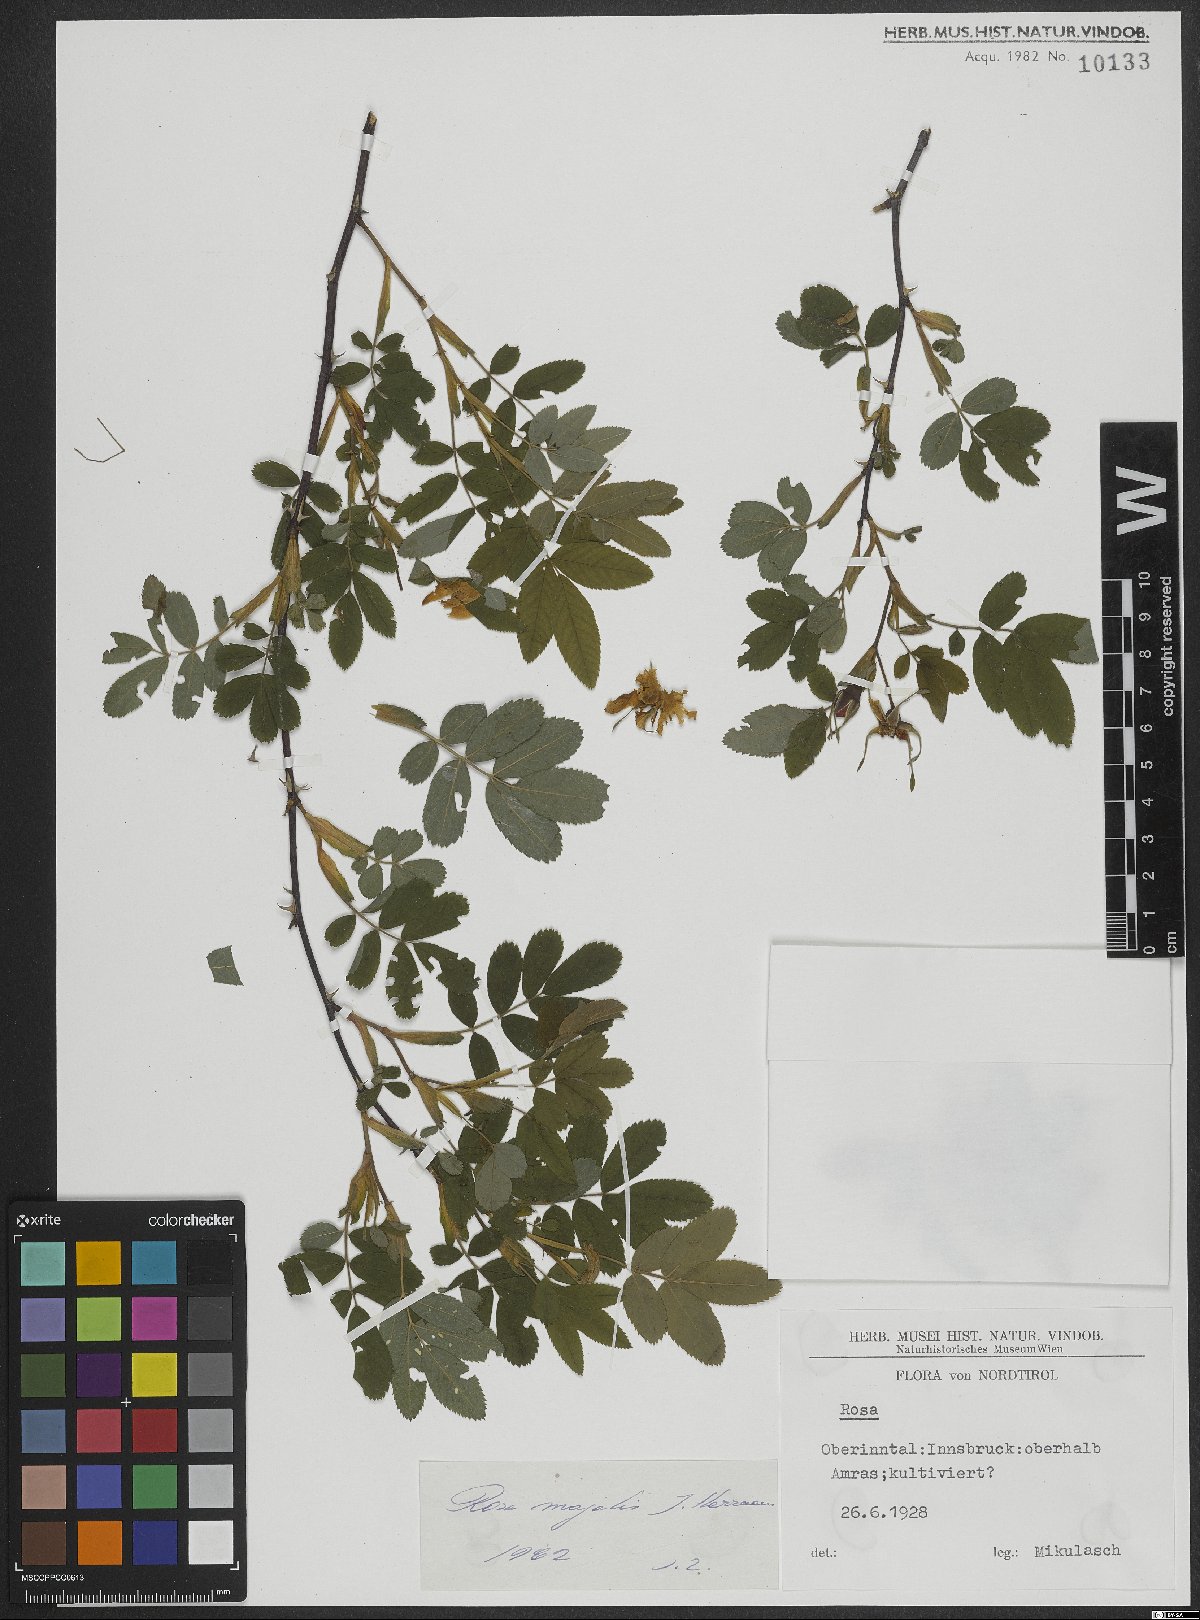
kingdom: Plantae
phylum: Tracheophyta
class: Magnoliopsida
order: Rosales
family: Rosaceae
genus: Rosa
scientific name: Rosa majalis
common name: Cinnamon rose
